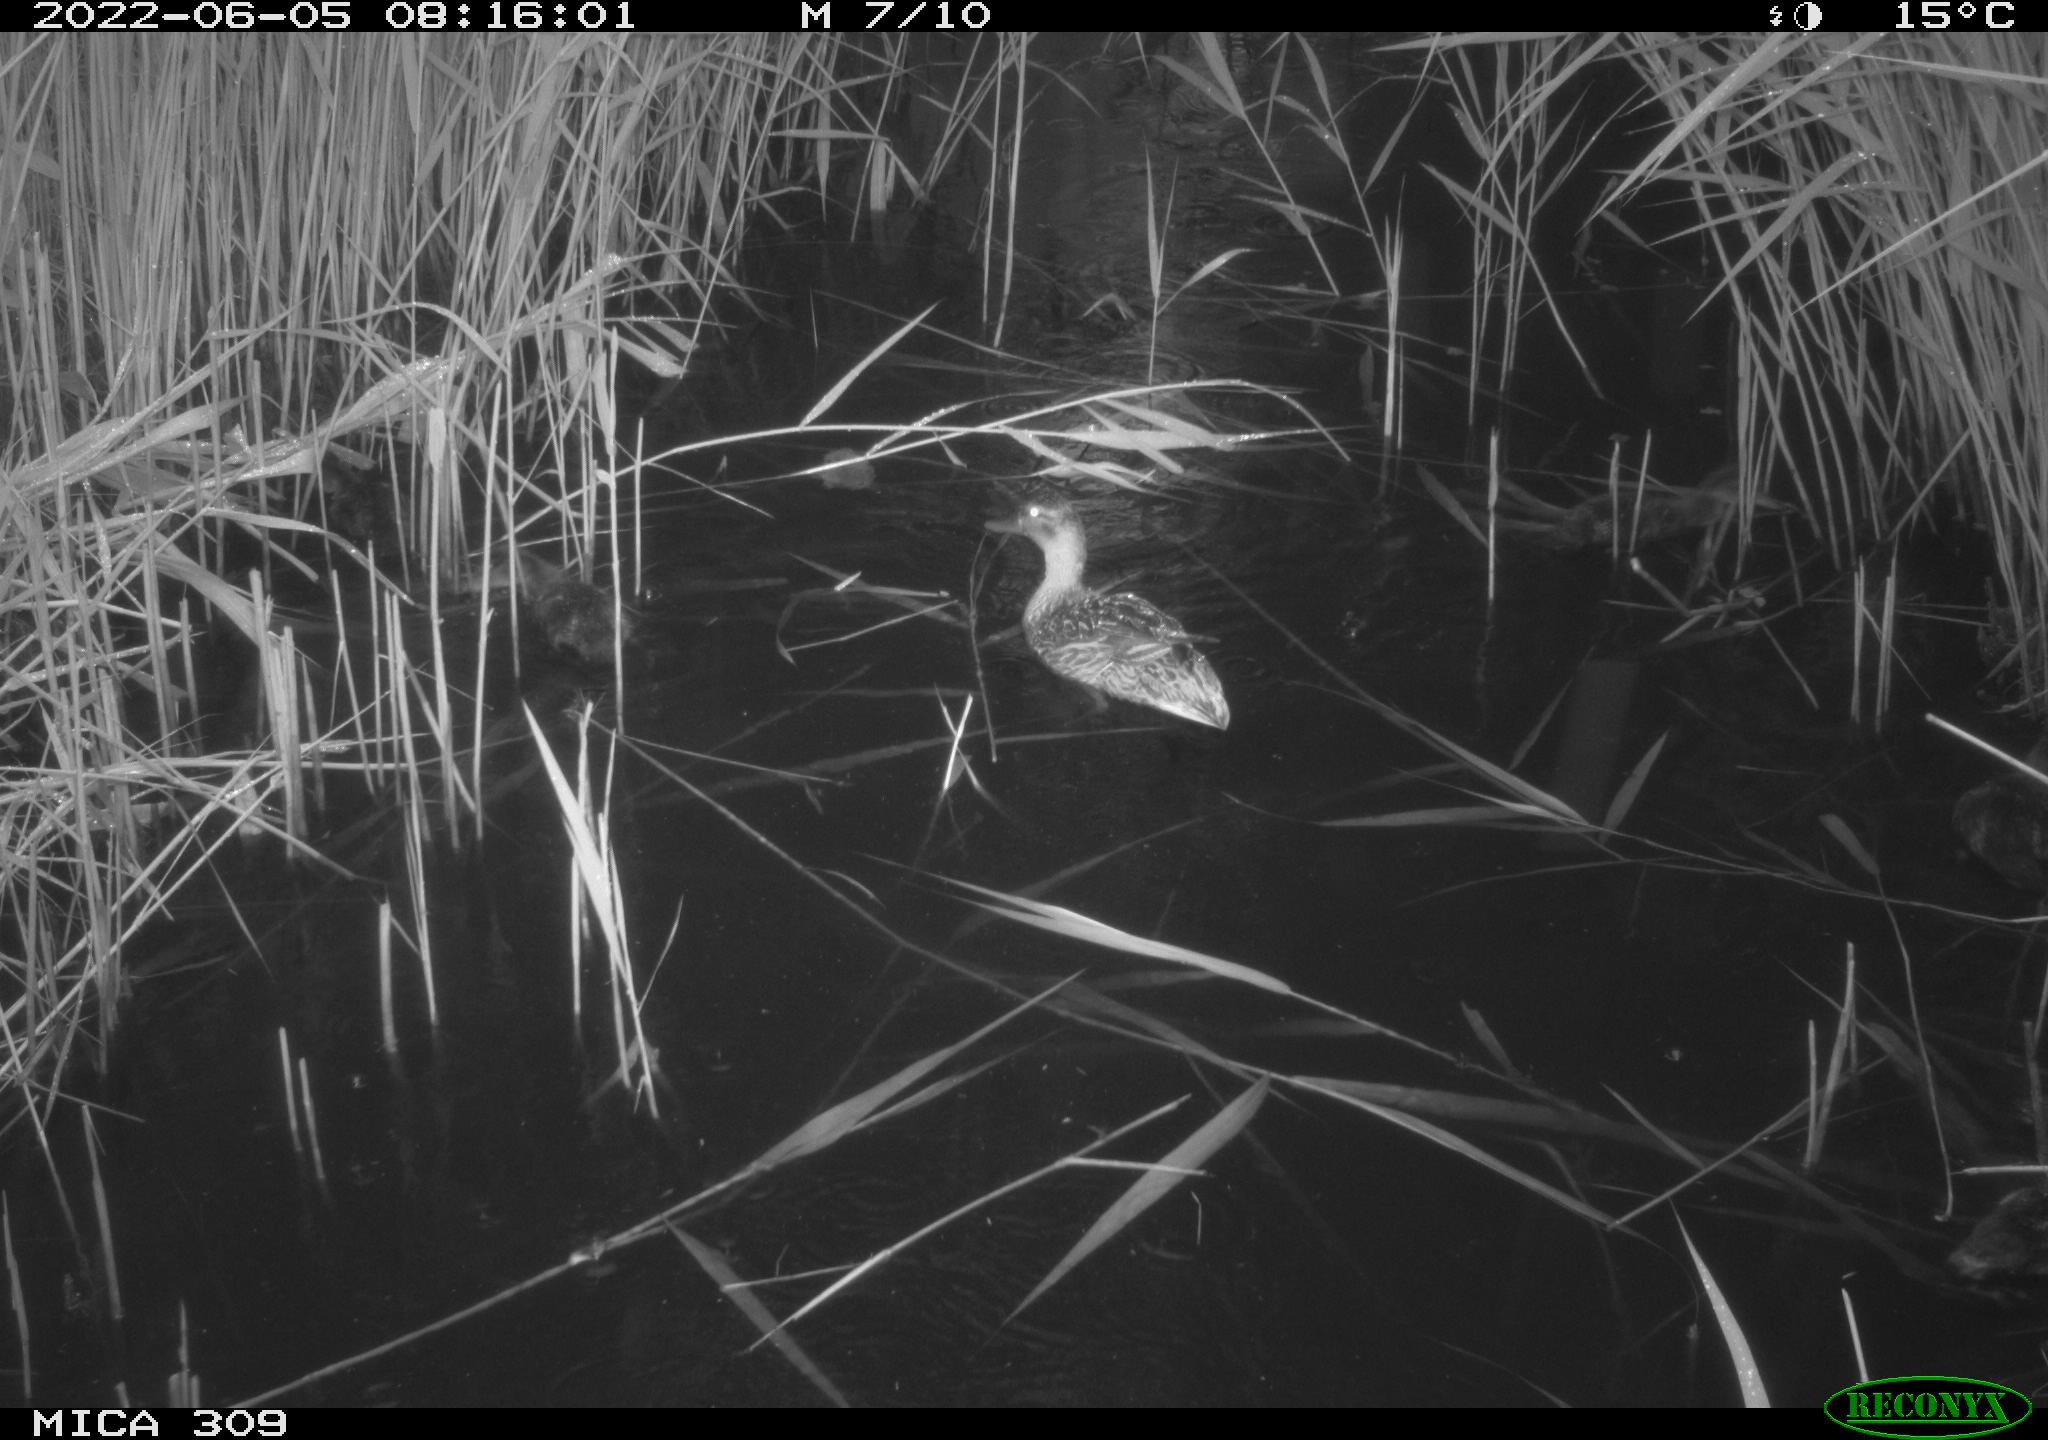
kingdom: Animalia
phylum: Chordata
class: Aves
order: Anseriformes
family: Anatidae
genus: Anas
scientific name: Anas platyrhynchos
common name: Mallard
